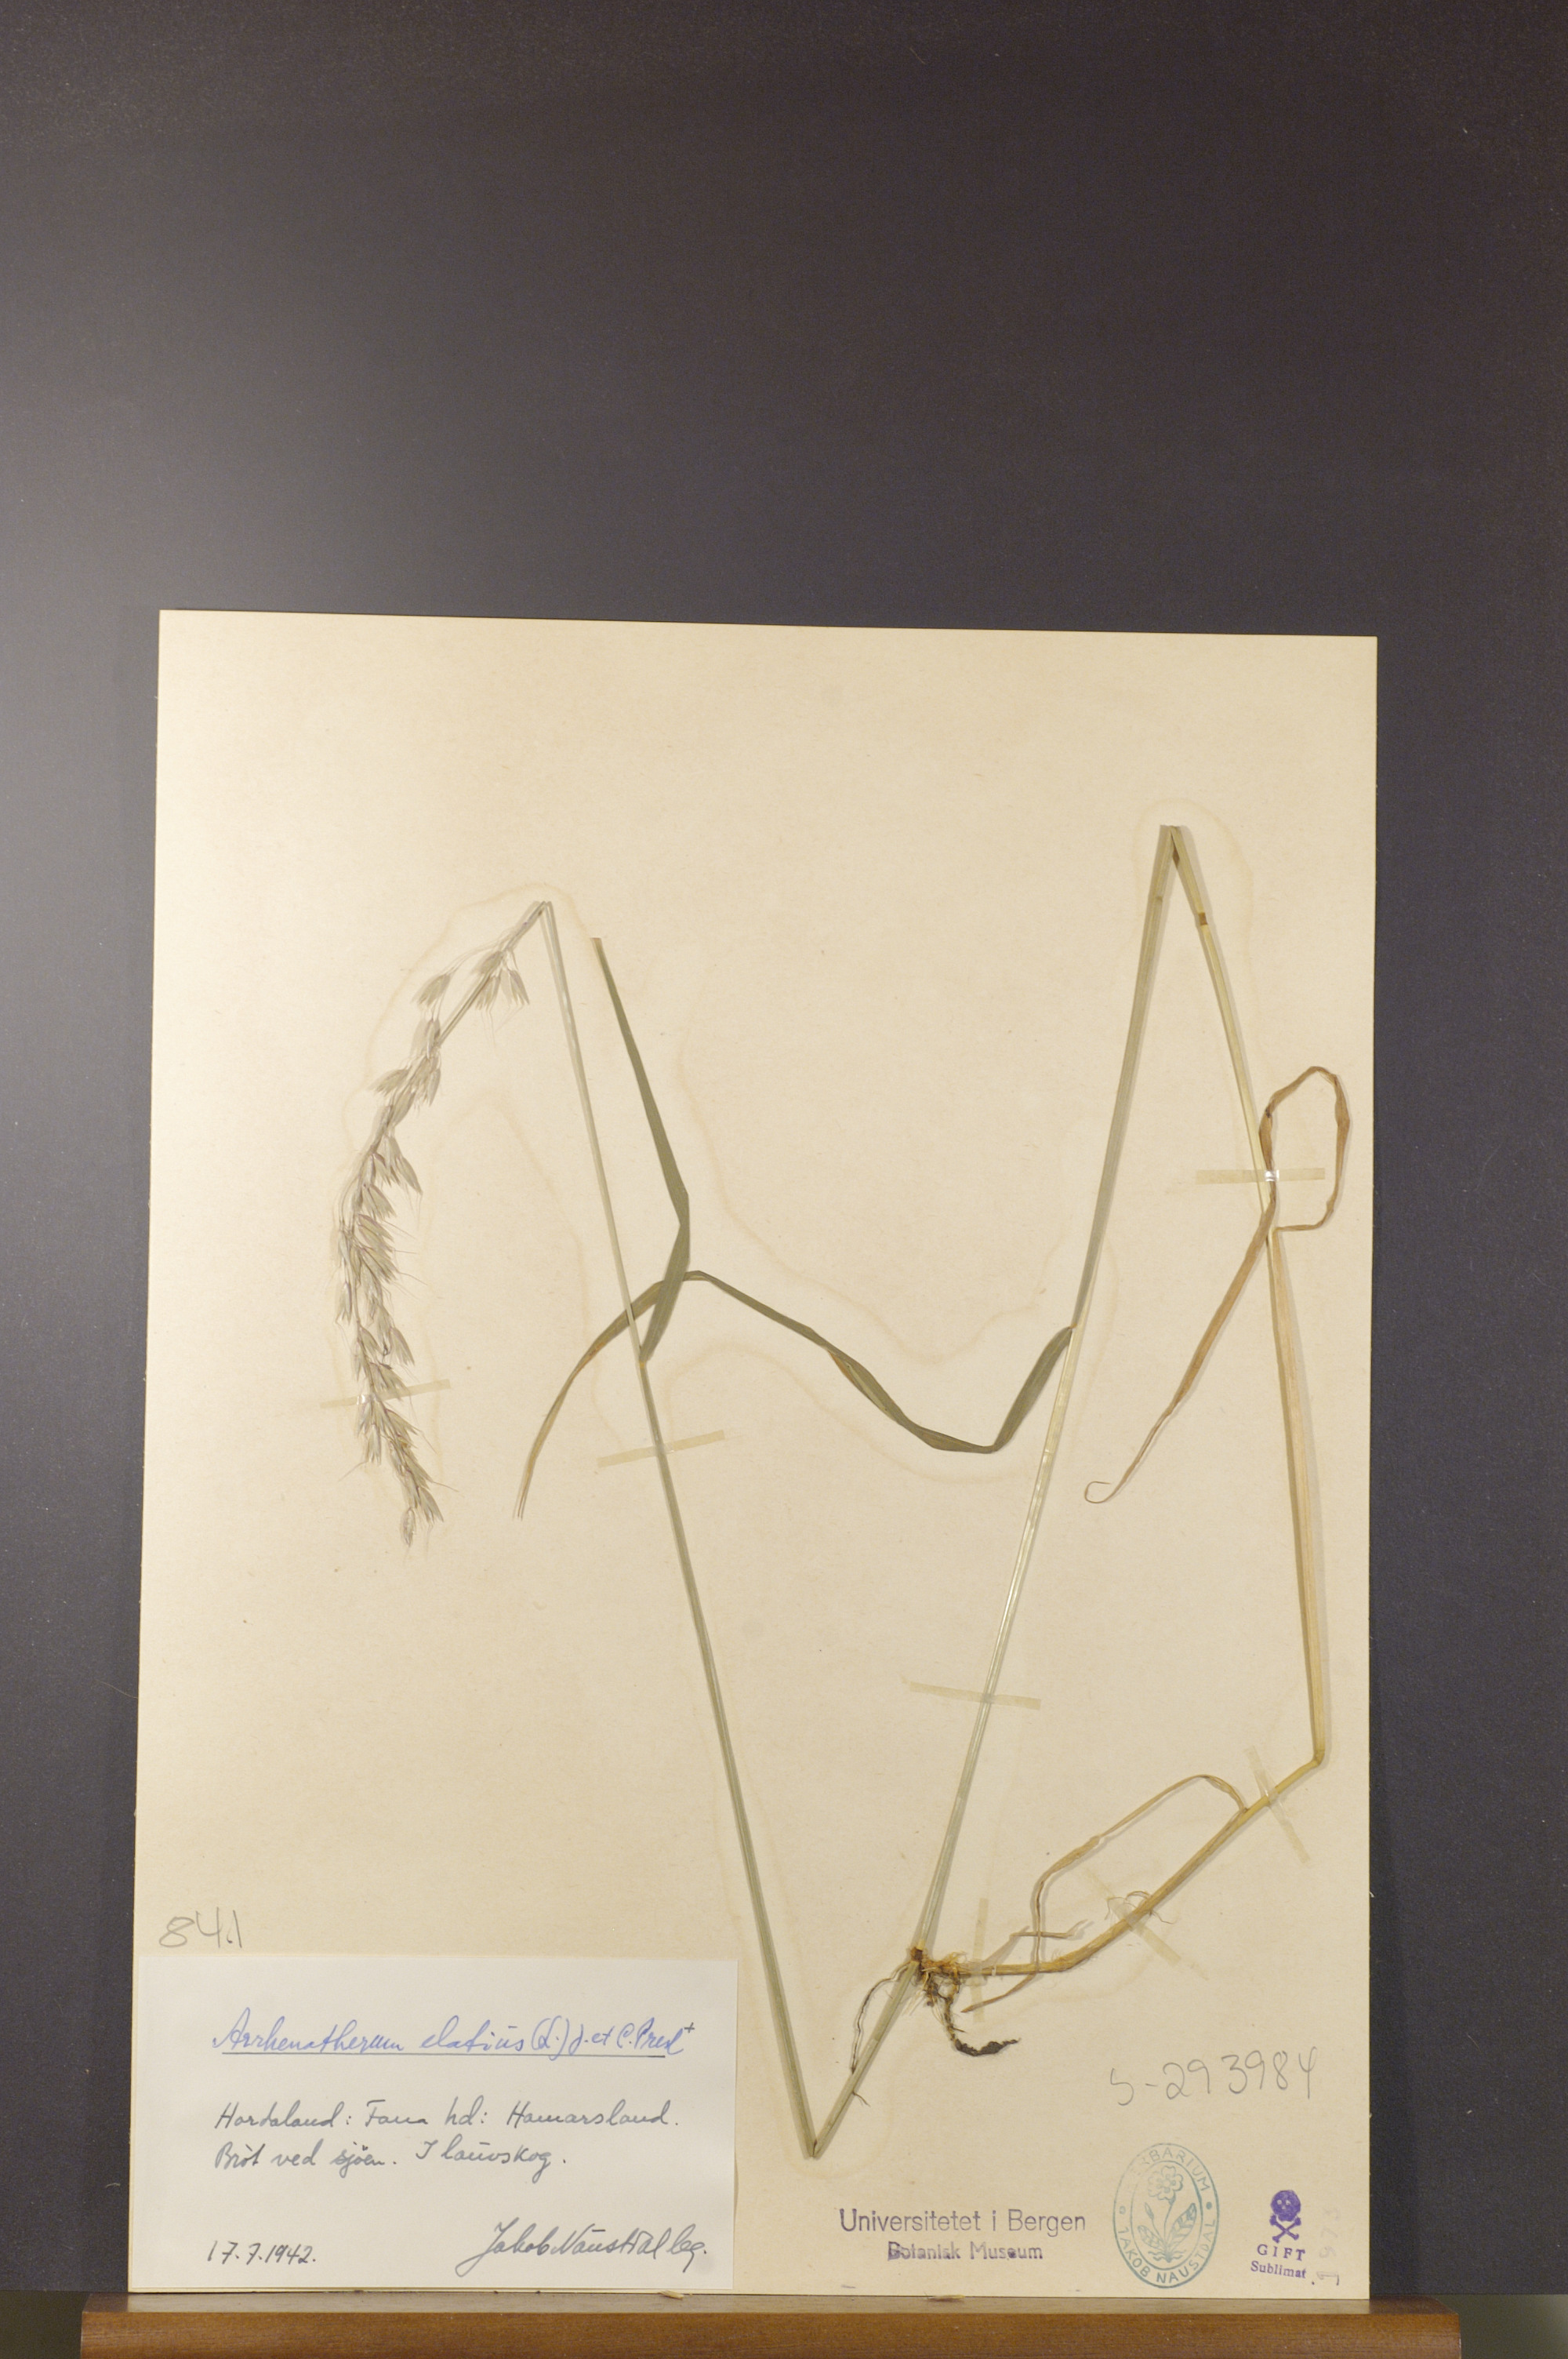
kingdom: Plantae
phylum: Tracheophyta
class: Liliopsida
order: Poales
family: Poaceae
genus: Arrhenatherum
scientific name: Arrhenatherum elatius
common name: Tall oatgrass
